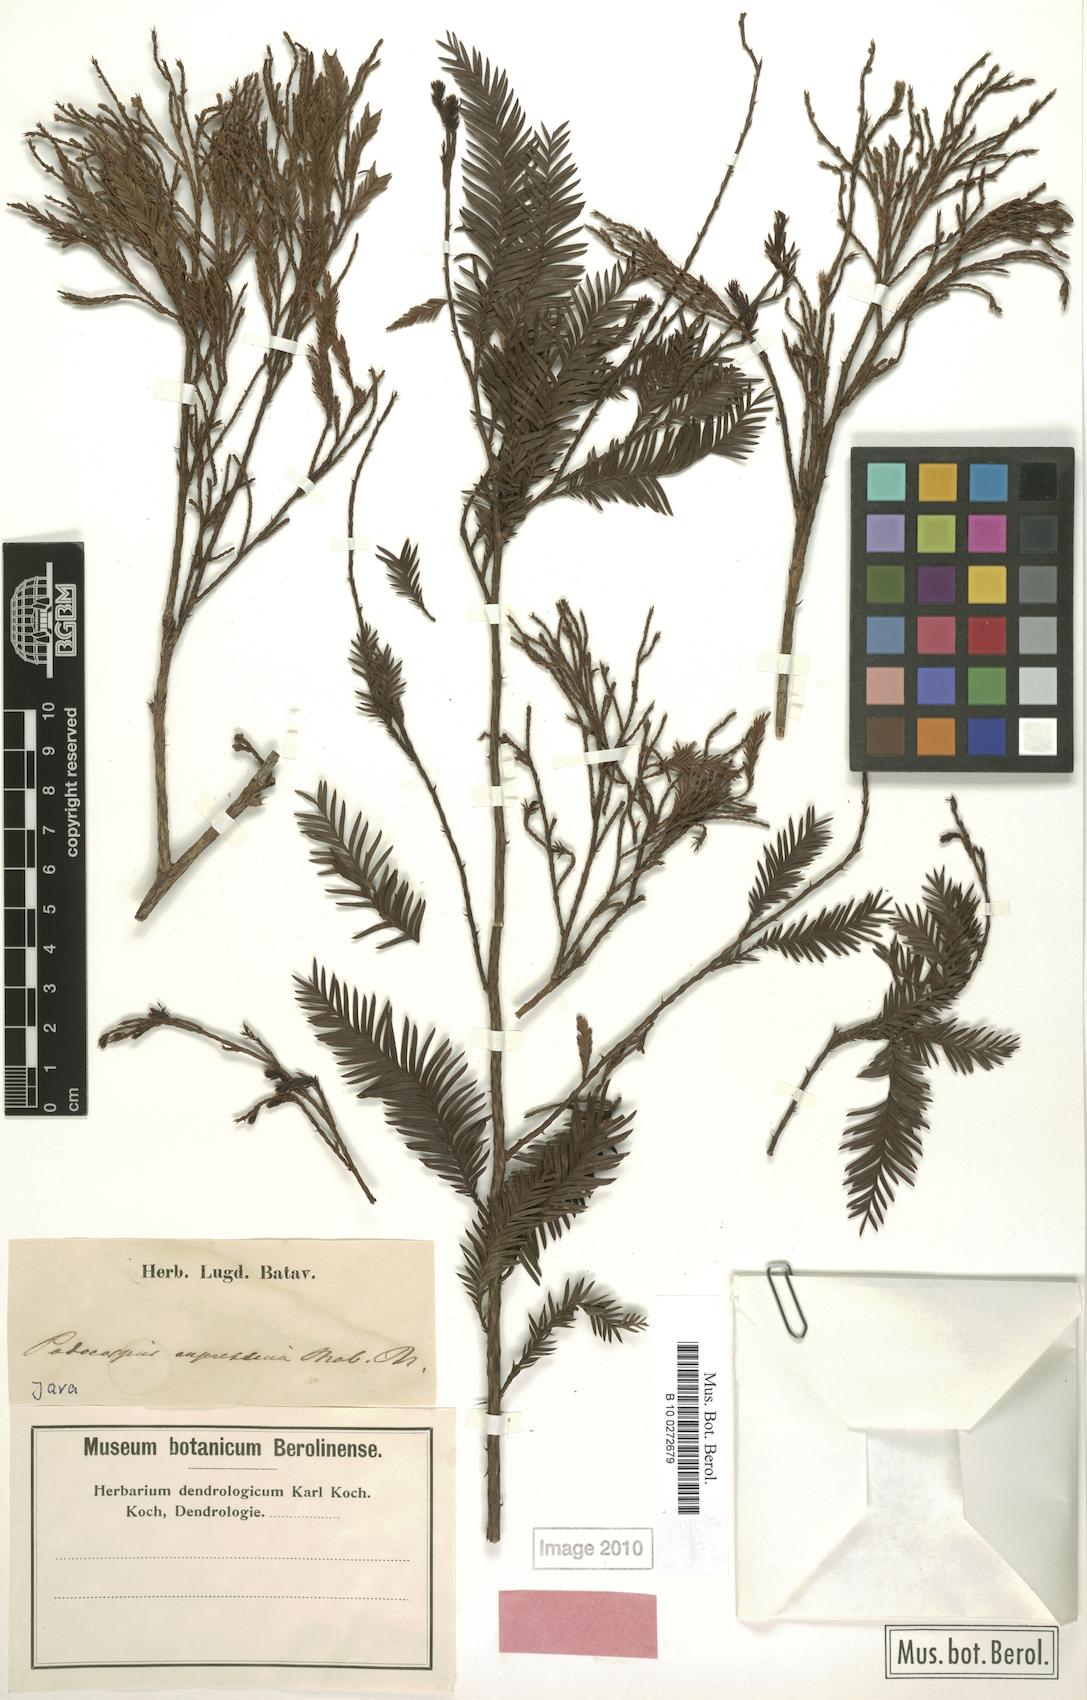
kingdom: Plantae
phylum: Tracheophyta
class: Pinopsida
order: Pinales
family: Podocarpaceae
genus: Podocarpus
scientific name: Podocarpus cupressina
